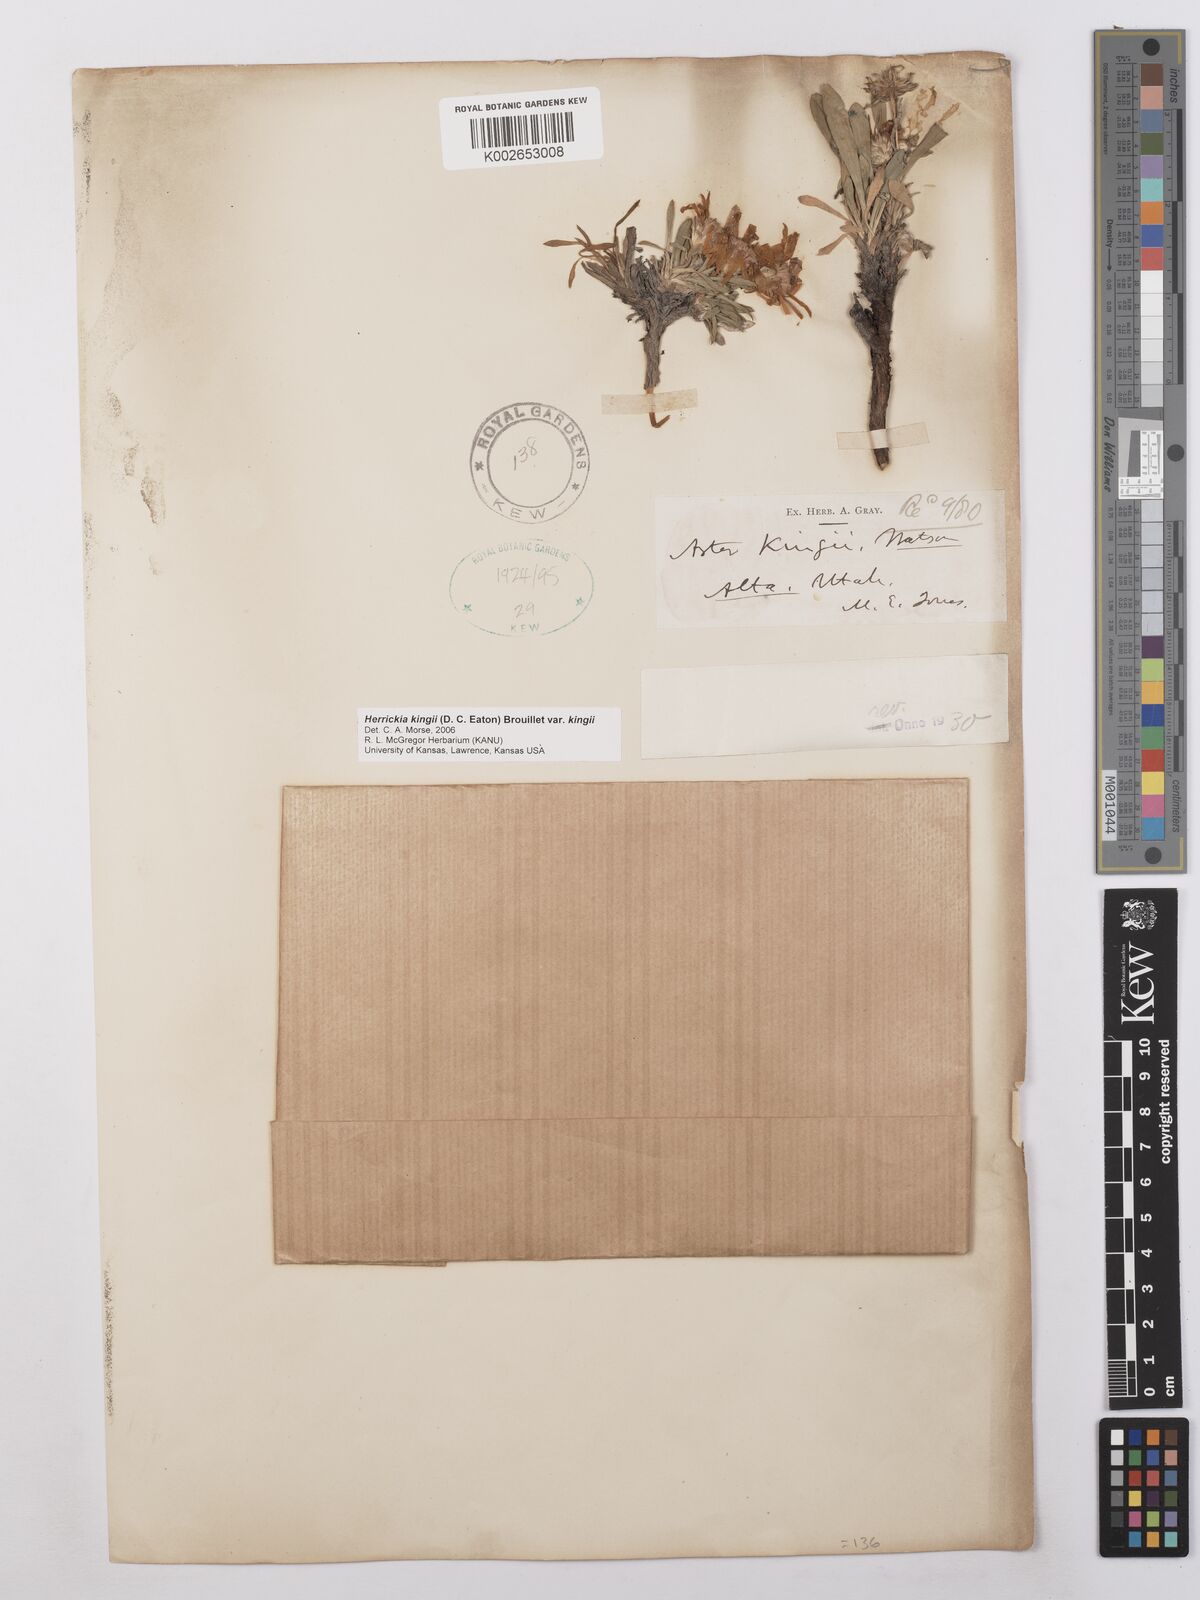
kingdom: Plantae
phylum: Tracheophyta
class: Magnoliopsida
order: Asterales
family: Asteraceae
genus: Eurybia
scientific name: Eurybia kingii
